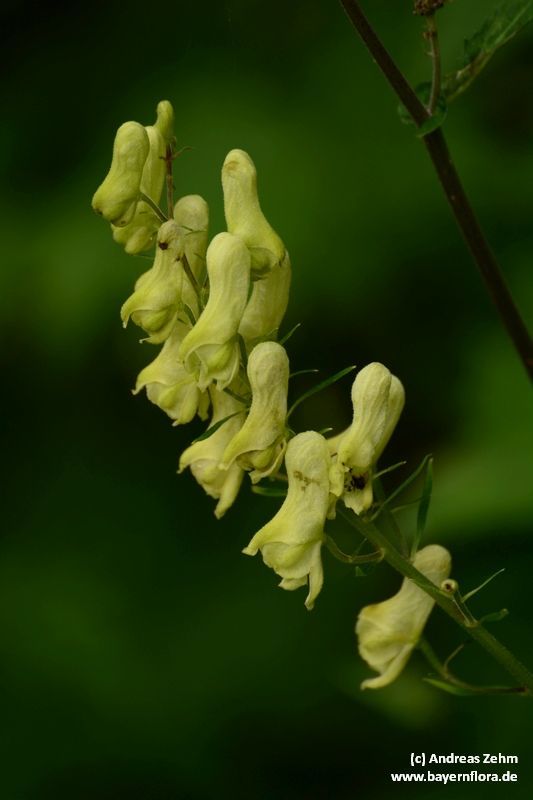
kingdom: Plantae
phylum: Tracheophyta
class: Magnoliopsida
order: Ranunculales
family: Ranunculaceae
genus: Aconitum
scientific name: Aconitum lycoctonum
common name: Wolf's-bane
